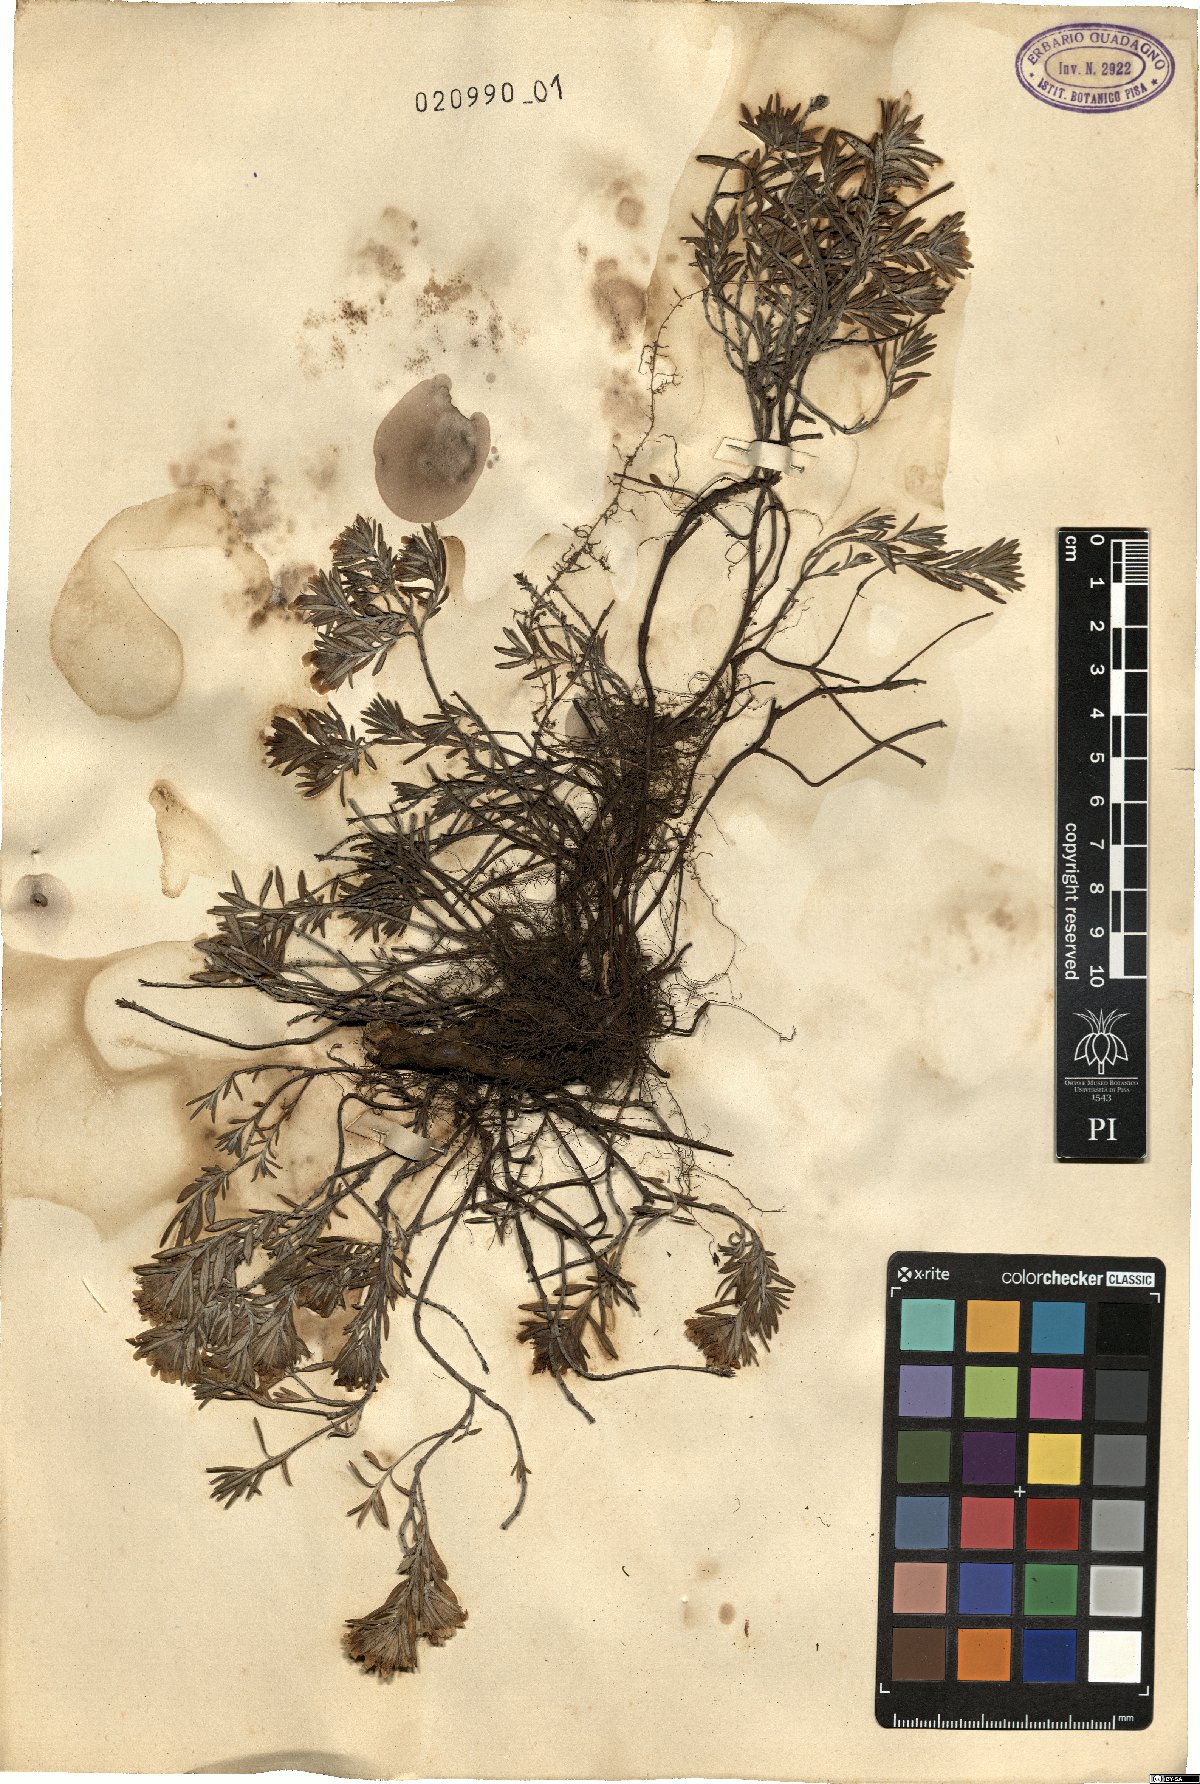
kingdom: Plantae
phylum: Tracheophyta
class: Magnoliopsida
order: Lamiales
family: Lamiaceae
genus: Teucrium
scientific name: Teucrium montanum
